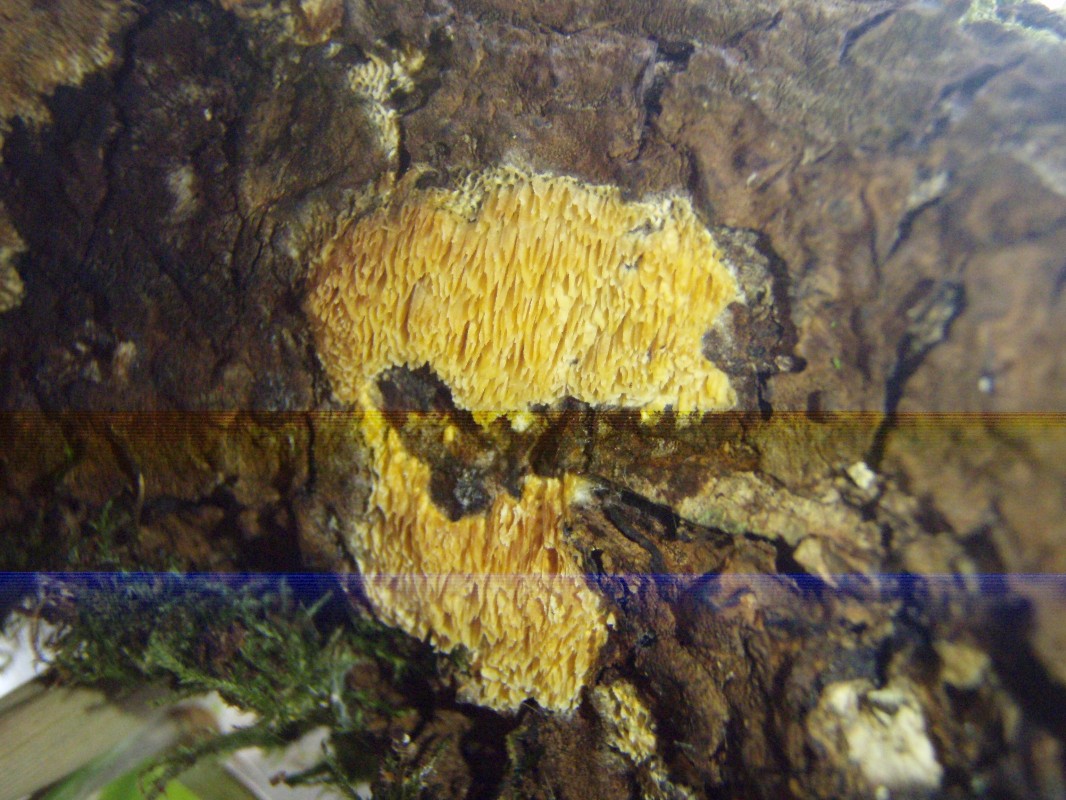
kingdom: Fungi
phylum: Basidiomycota
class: Agaricomycetes
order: Polyporales
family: Steccherinaceae
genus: Antella
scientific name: Antella niemelaei
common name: grovporet elastikporesvamp
